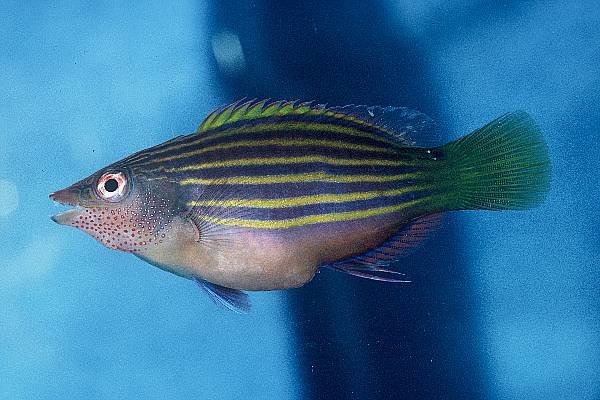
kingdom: Animalia
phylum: Chordata
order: Perciformes
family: Labridae
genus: Pseudocheilinus
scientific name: Pseudocheilinus hexataenia
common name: Sixline wrasse
